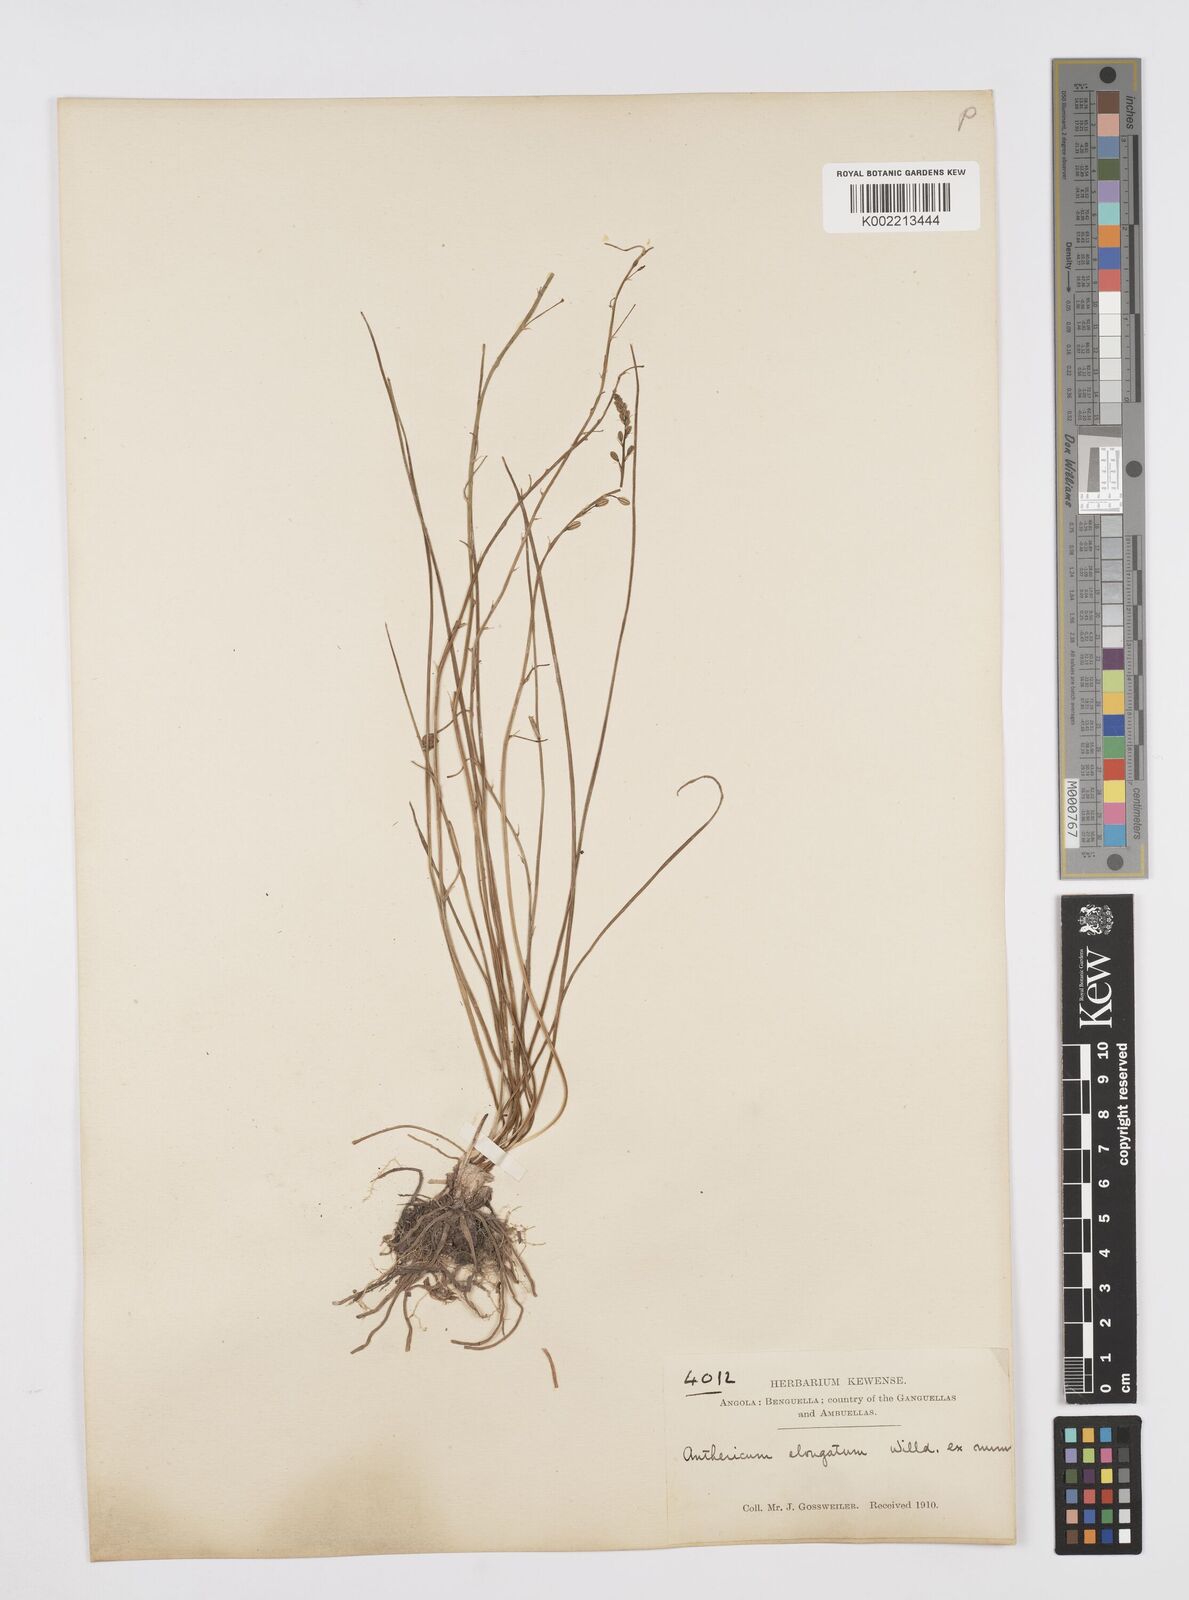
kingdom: Plantae
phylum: Tracheophyta
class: Liliopsida
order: Asparagales
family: Asphodelaceae
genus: Trachyandra
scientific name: Trachyandra saltii
